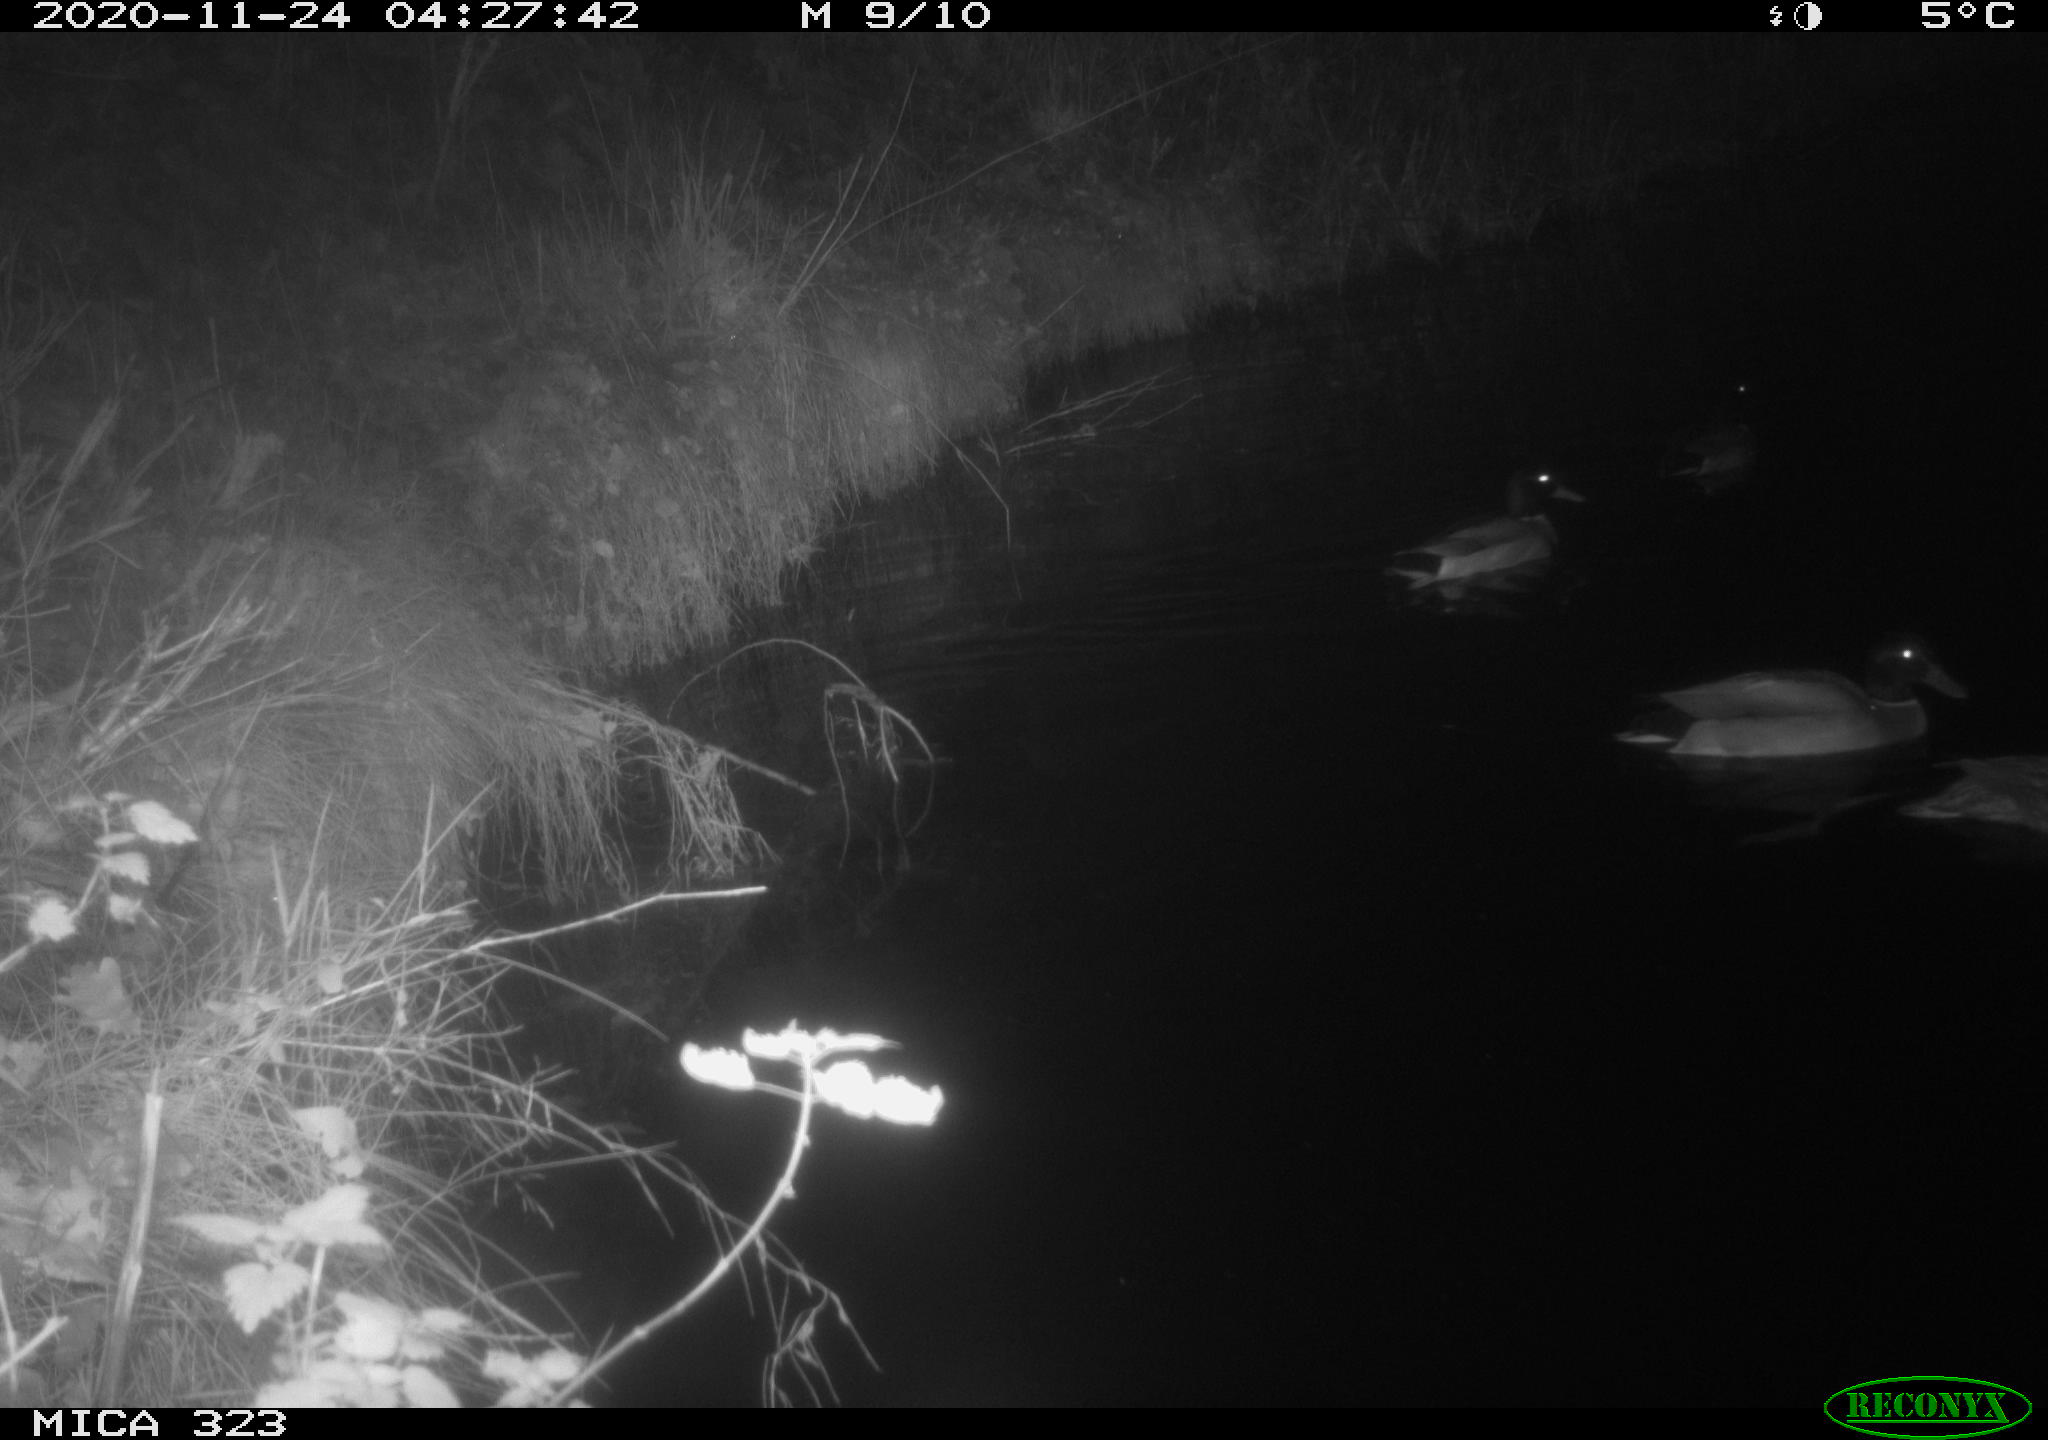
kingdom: Animalia
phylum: Chordata
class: Aves
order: Anseriformes
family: Anatidae
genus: Anas
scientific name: Anas platyrhynchos
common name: Mallard
